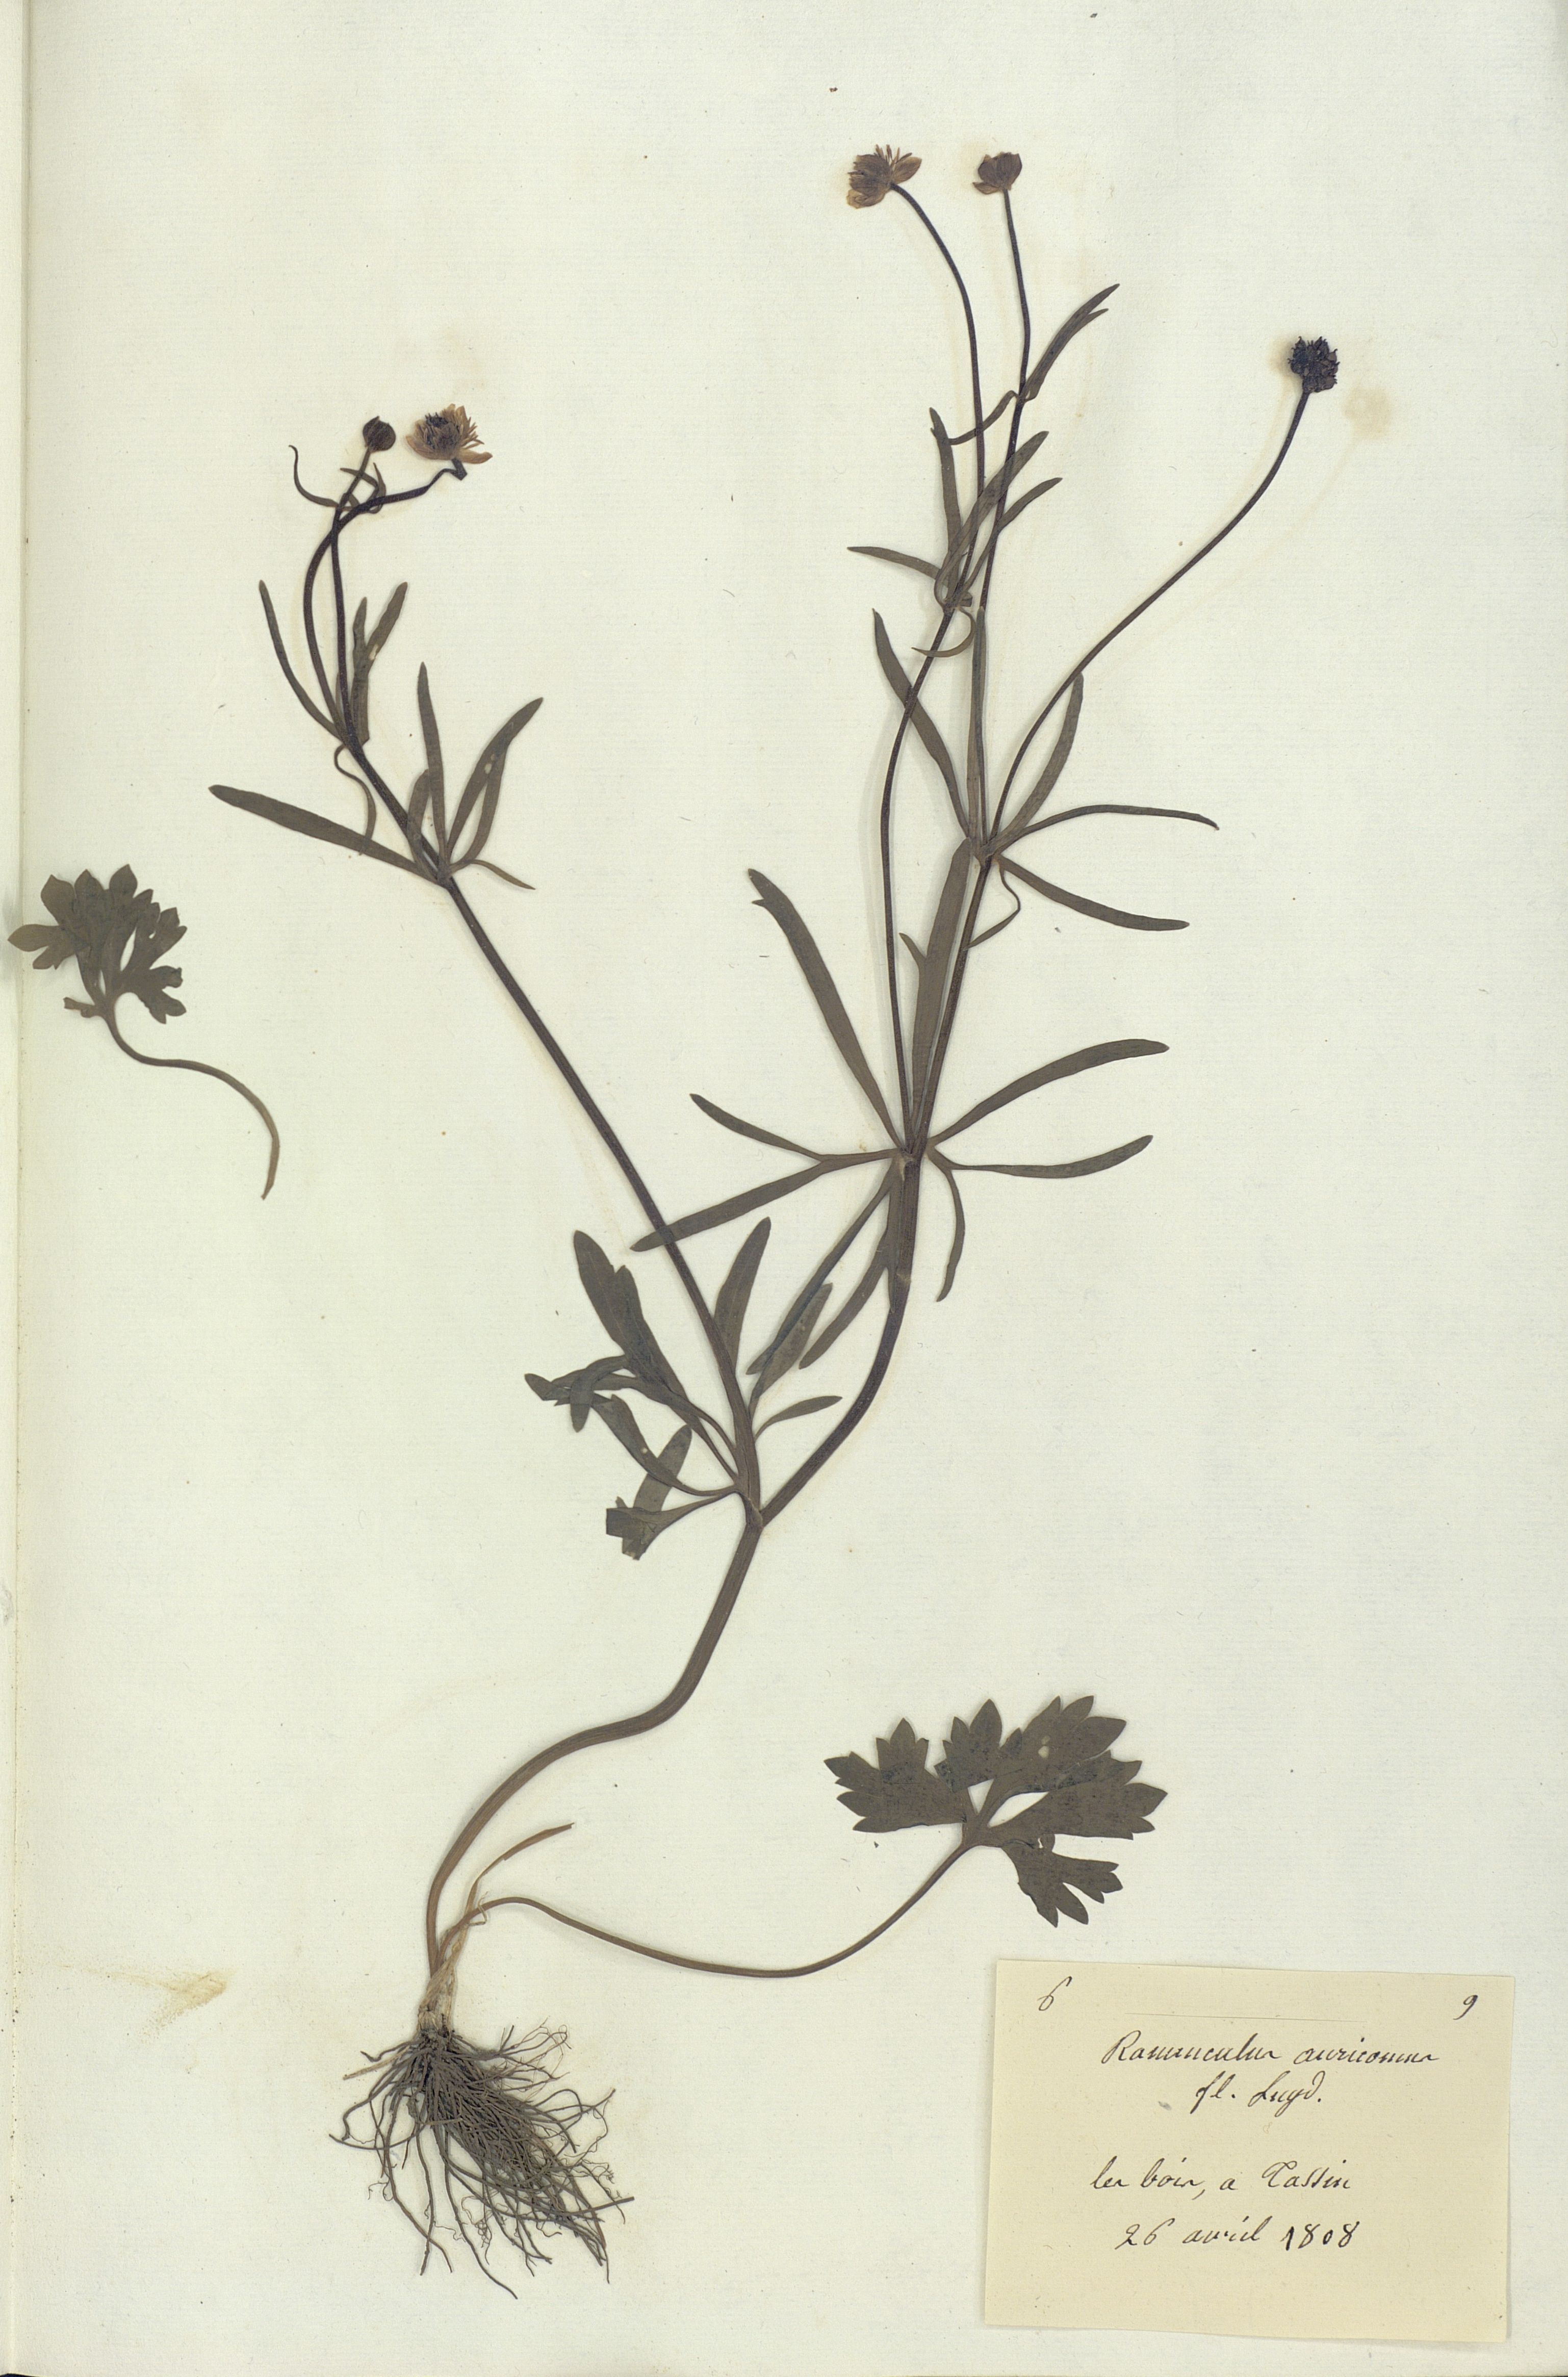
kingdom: Plantae
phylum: Tracheophyta
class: Magnoliopsida
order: Ranunculales
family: Ranunculaceae
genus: Ranunculus
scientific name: Ranunculus auricomus
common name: Goldilocks buttercup
